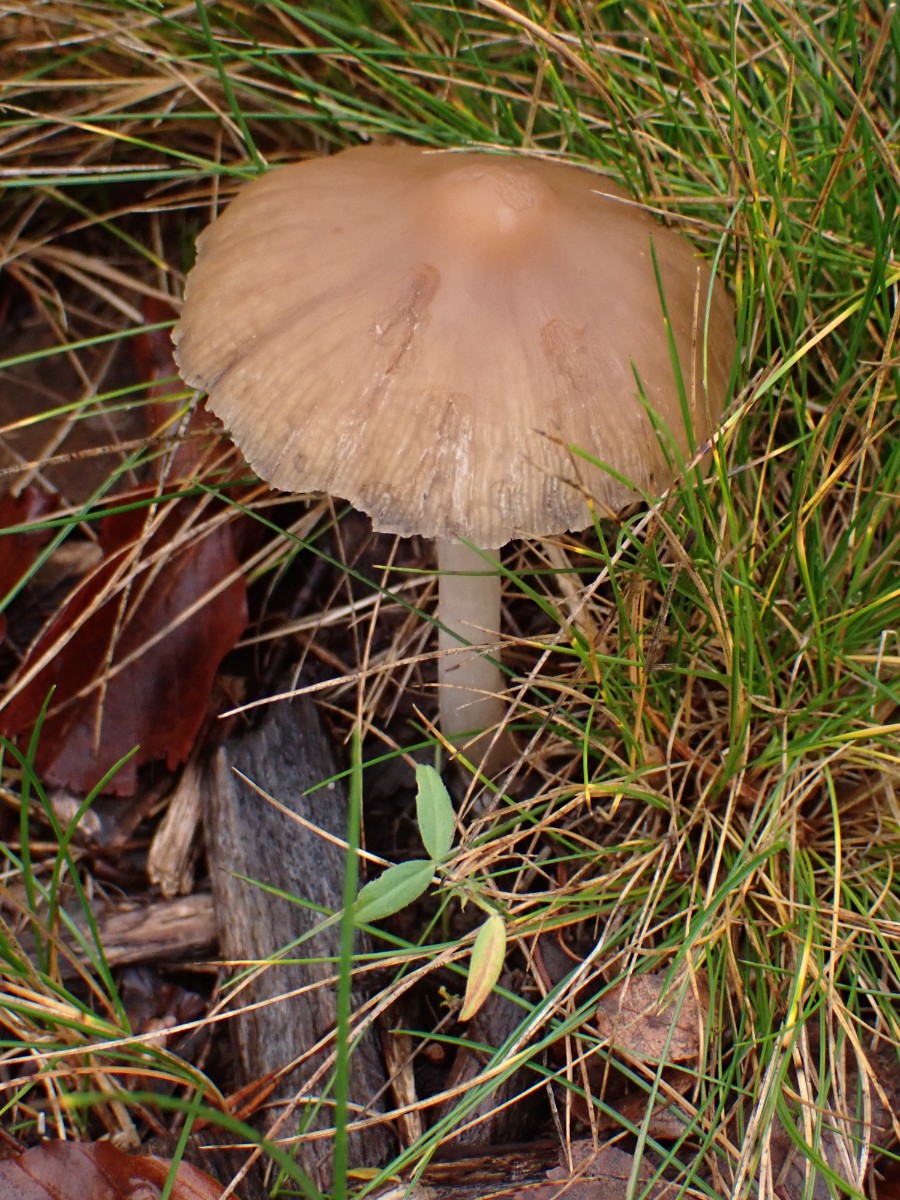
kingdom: Fungi
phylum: Basidiomycota
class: Agaricomycetes
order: Agaricales
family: Psathyrellaceae
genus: Psathyrella
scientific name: Psathyrella
